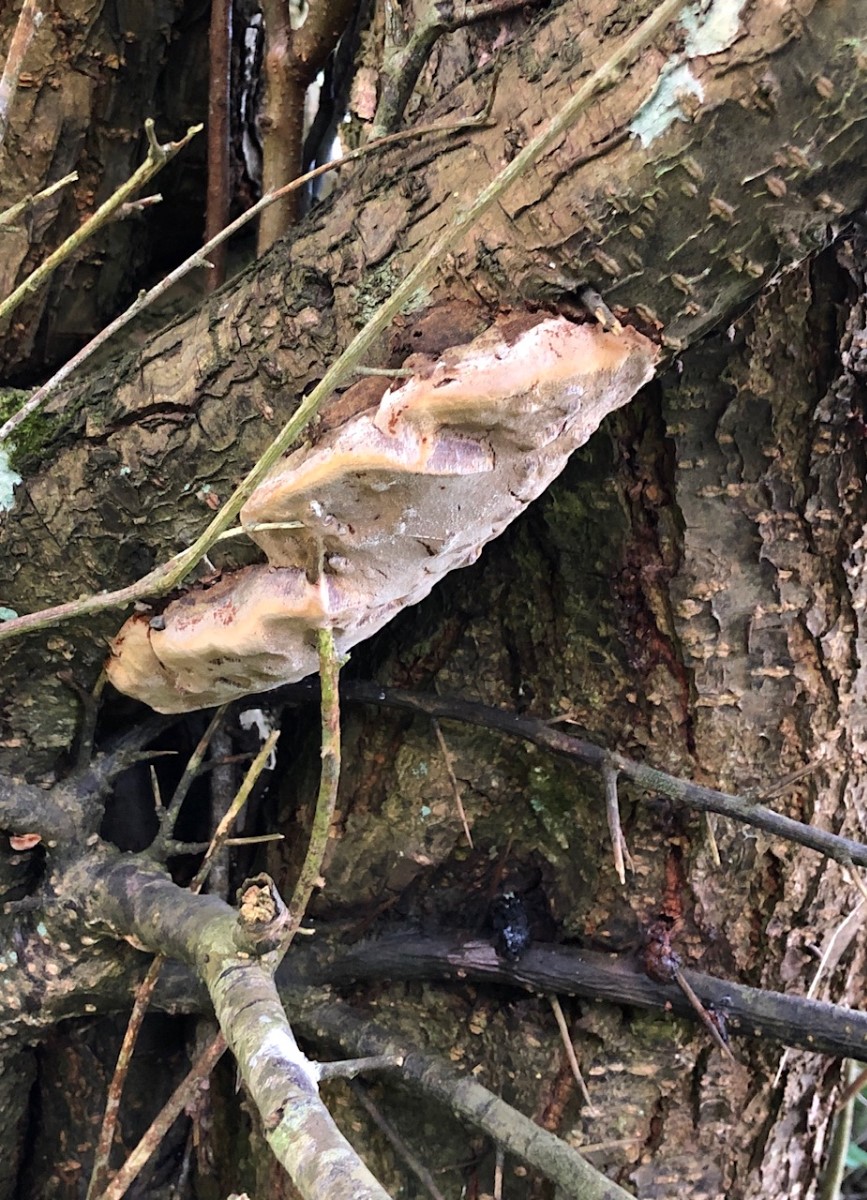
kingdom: Fungi
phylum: Basidiomycota
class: Agaricomycetes
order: Hymenochaetales
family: Hymenochaetaceae
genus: Phellinus
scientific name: Phellinus pomaceus
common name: blomme-ildporesvamp
